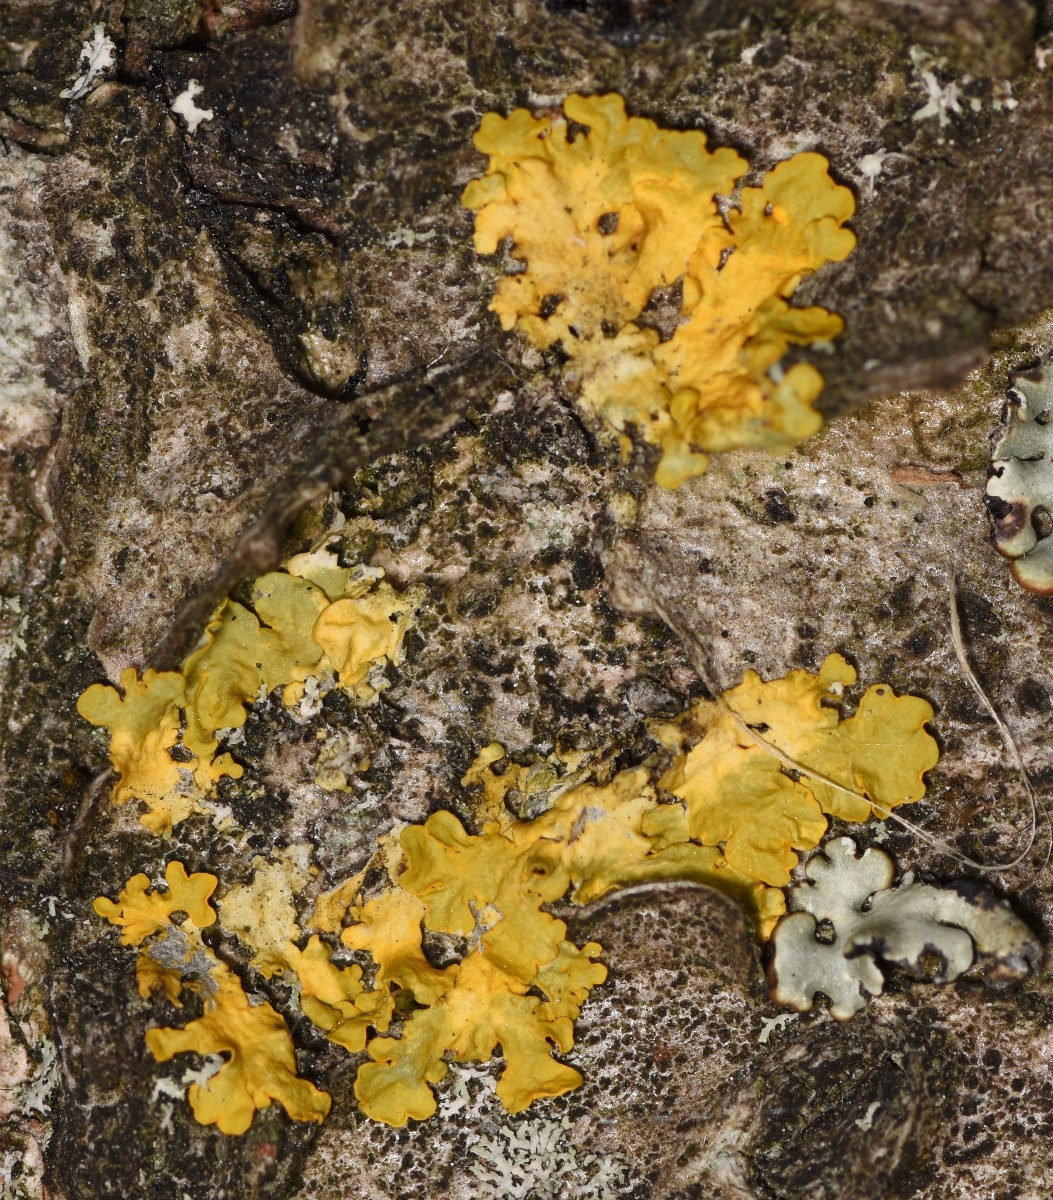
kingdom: Fungi
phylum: Ascomycota
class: Lecanoromycetes
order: Teloschistales
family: Teloschistaceae
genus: Xanthoria
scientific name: Xanthoria parietina
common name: almindelig væggelav
